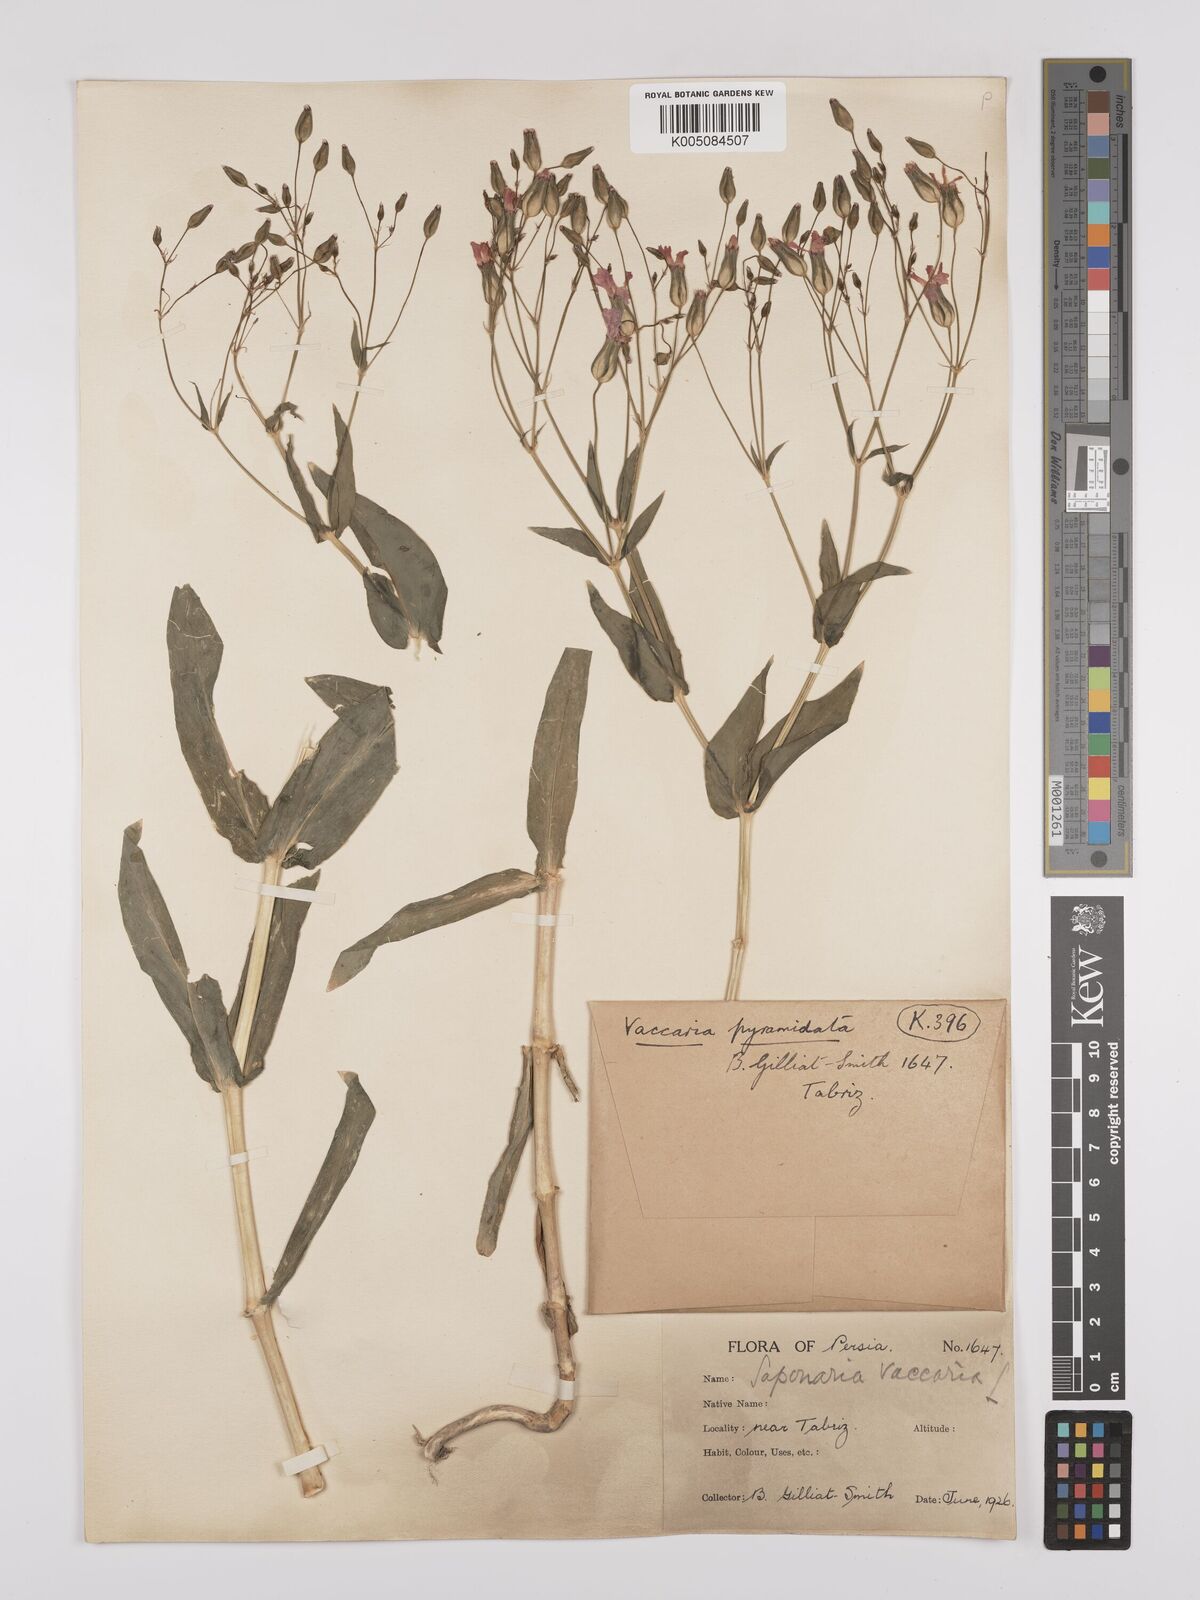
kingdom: Plantae
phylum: Tracheophyta
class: Magnoliopsida
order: Caryophyllales
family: Caryophyllaceae
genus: Gypsophila
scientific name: Gypsophila vaccaria
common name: Cow soapwort
